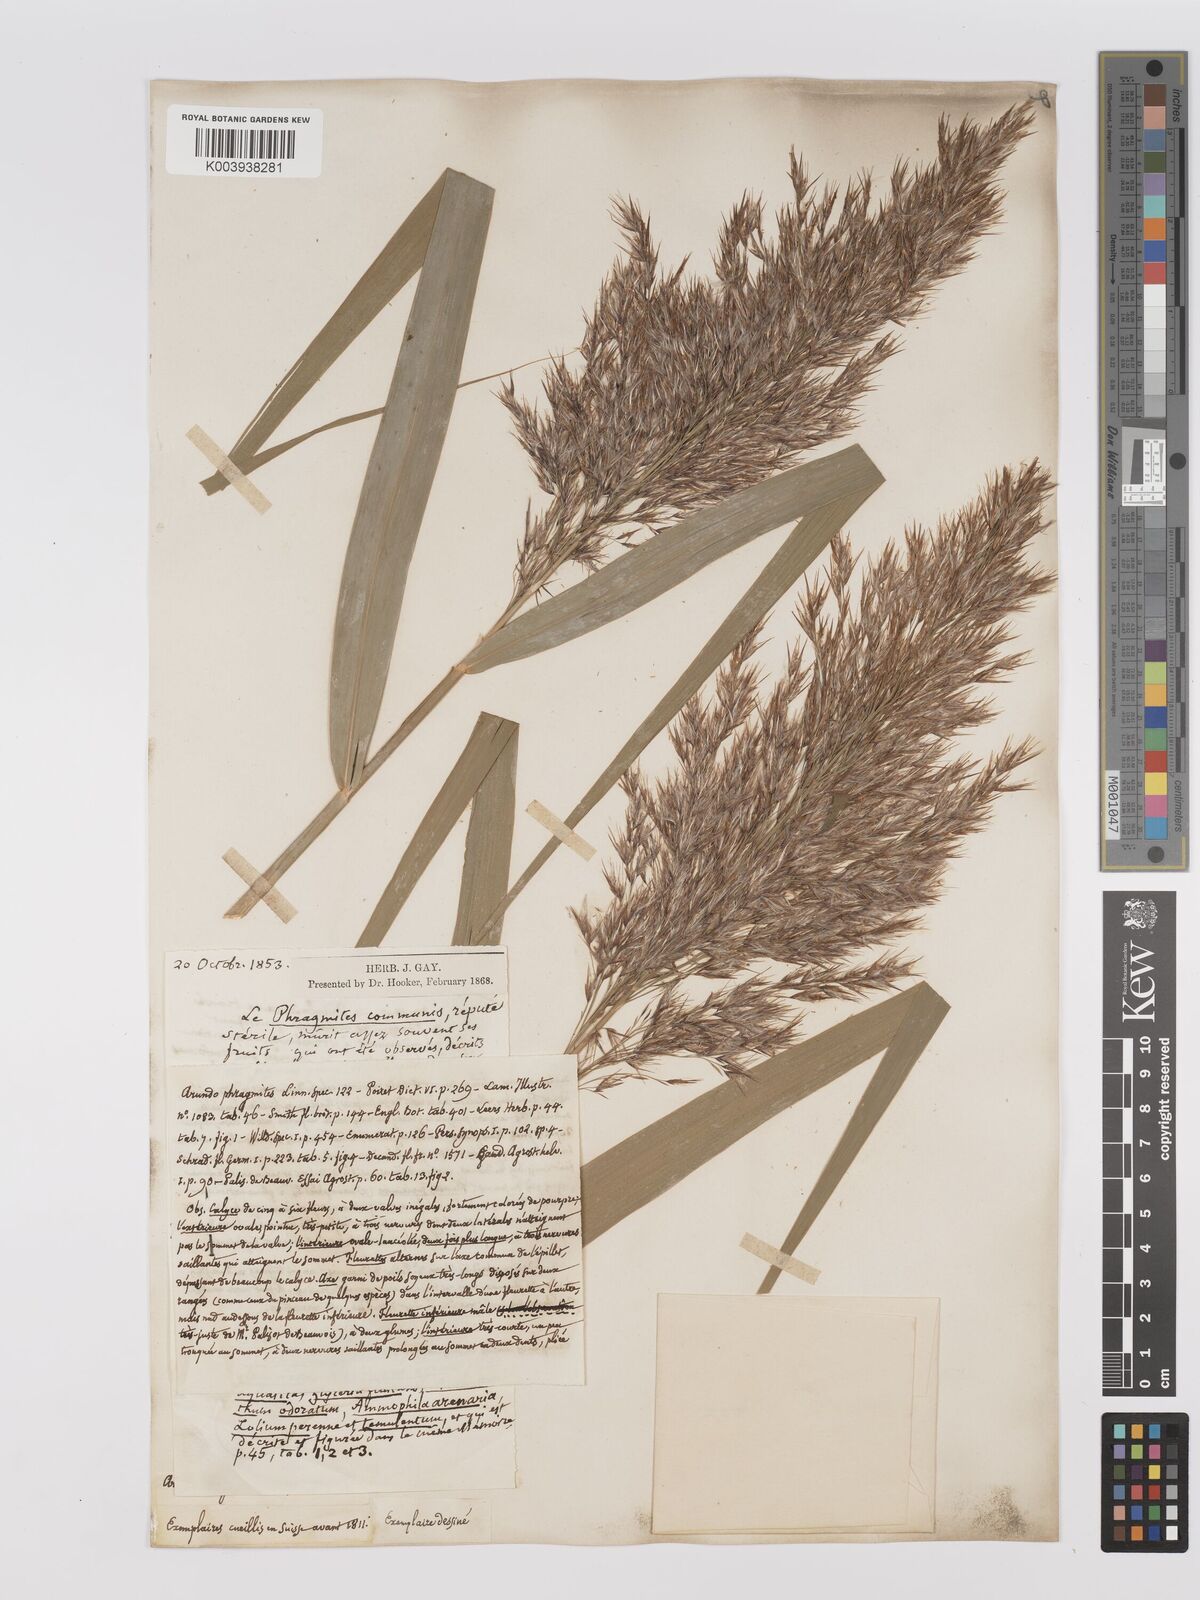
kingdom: Plantae
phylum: Tracheophyta
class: Liliopsida
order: Poales
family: Poaceae
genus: Phragmites
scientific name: Phragmites australis
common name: Common reed
